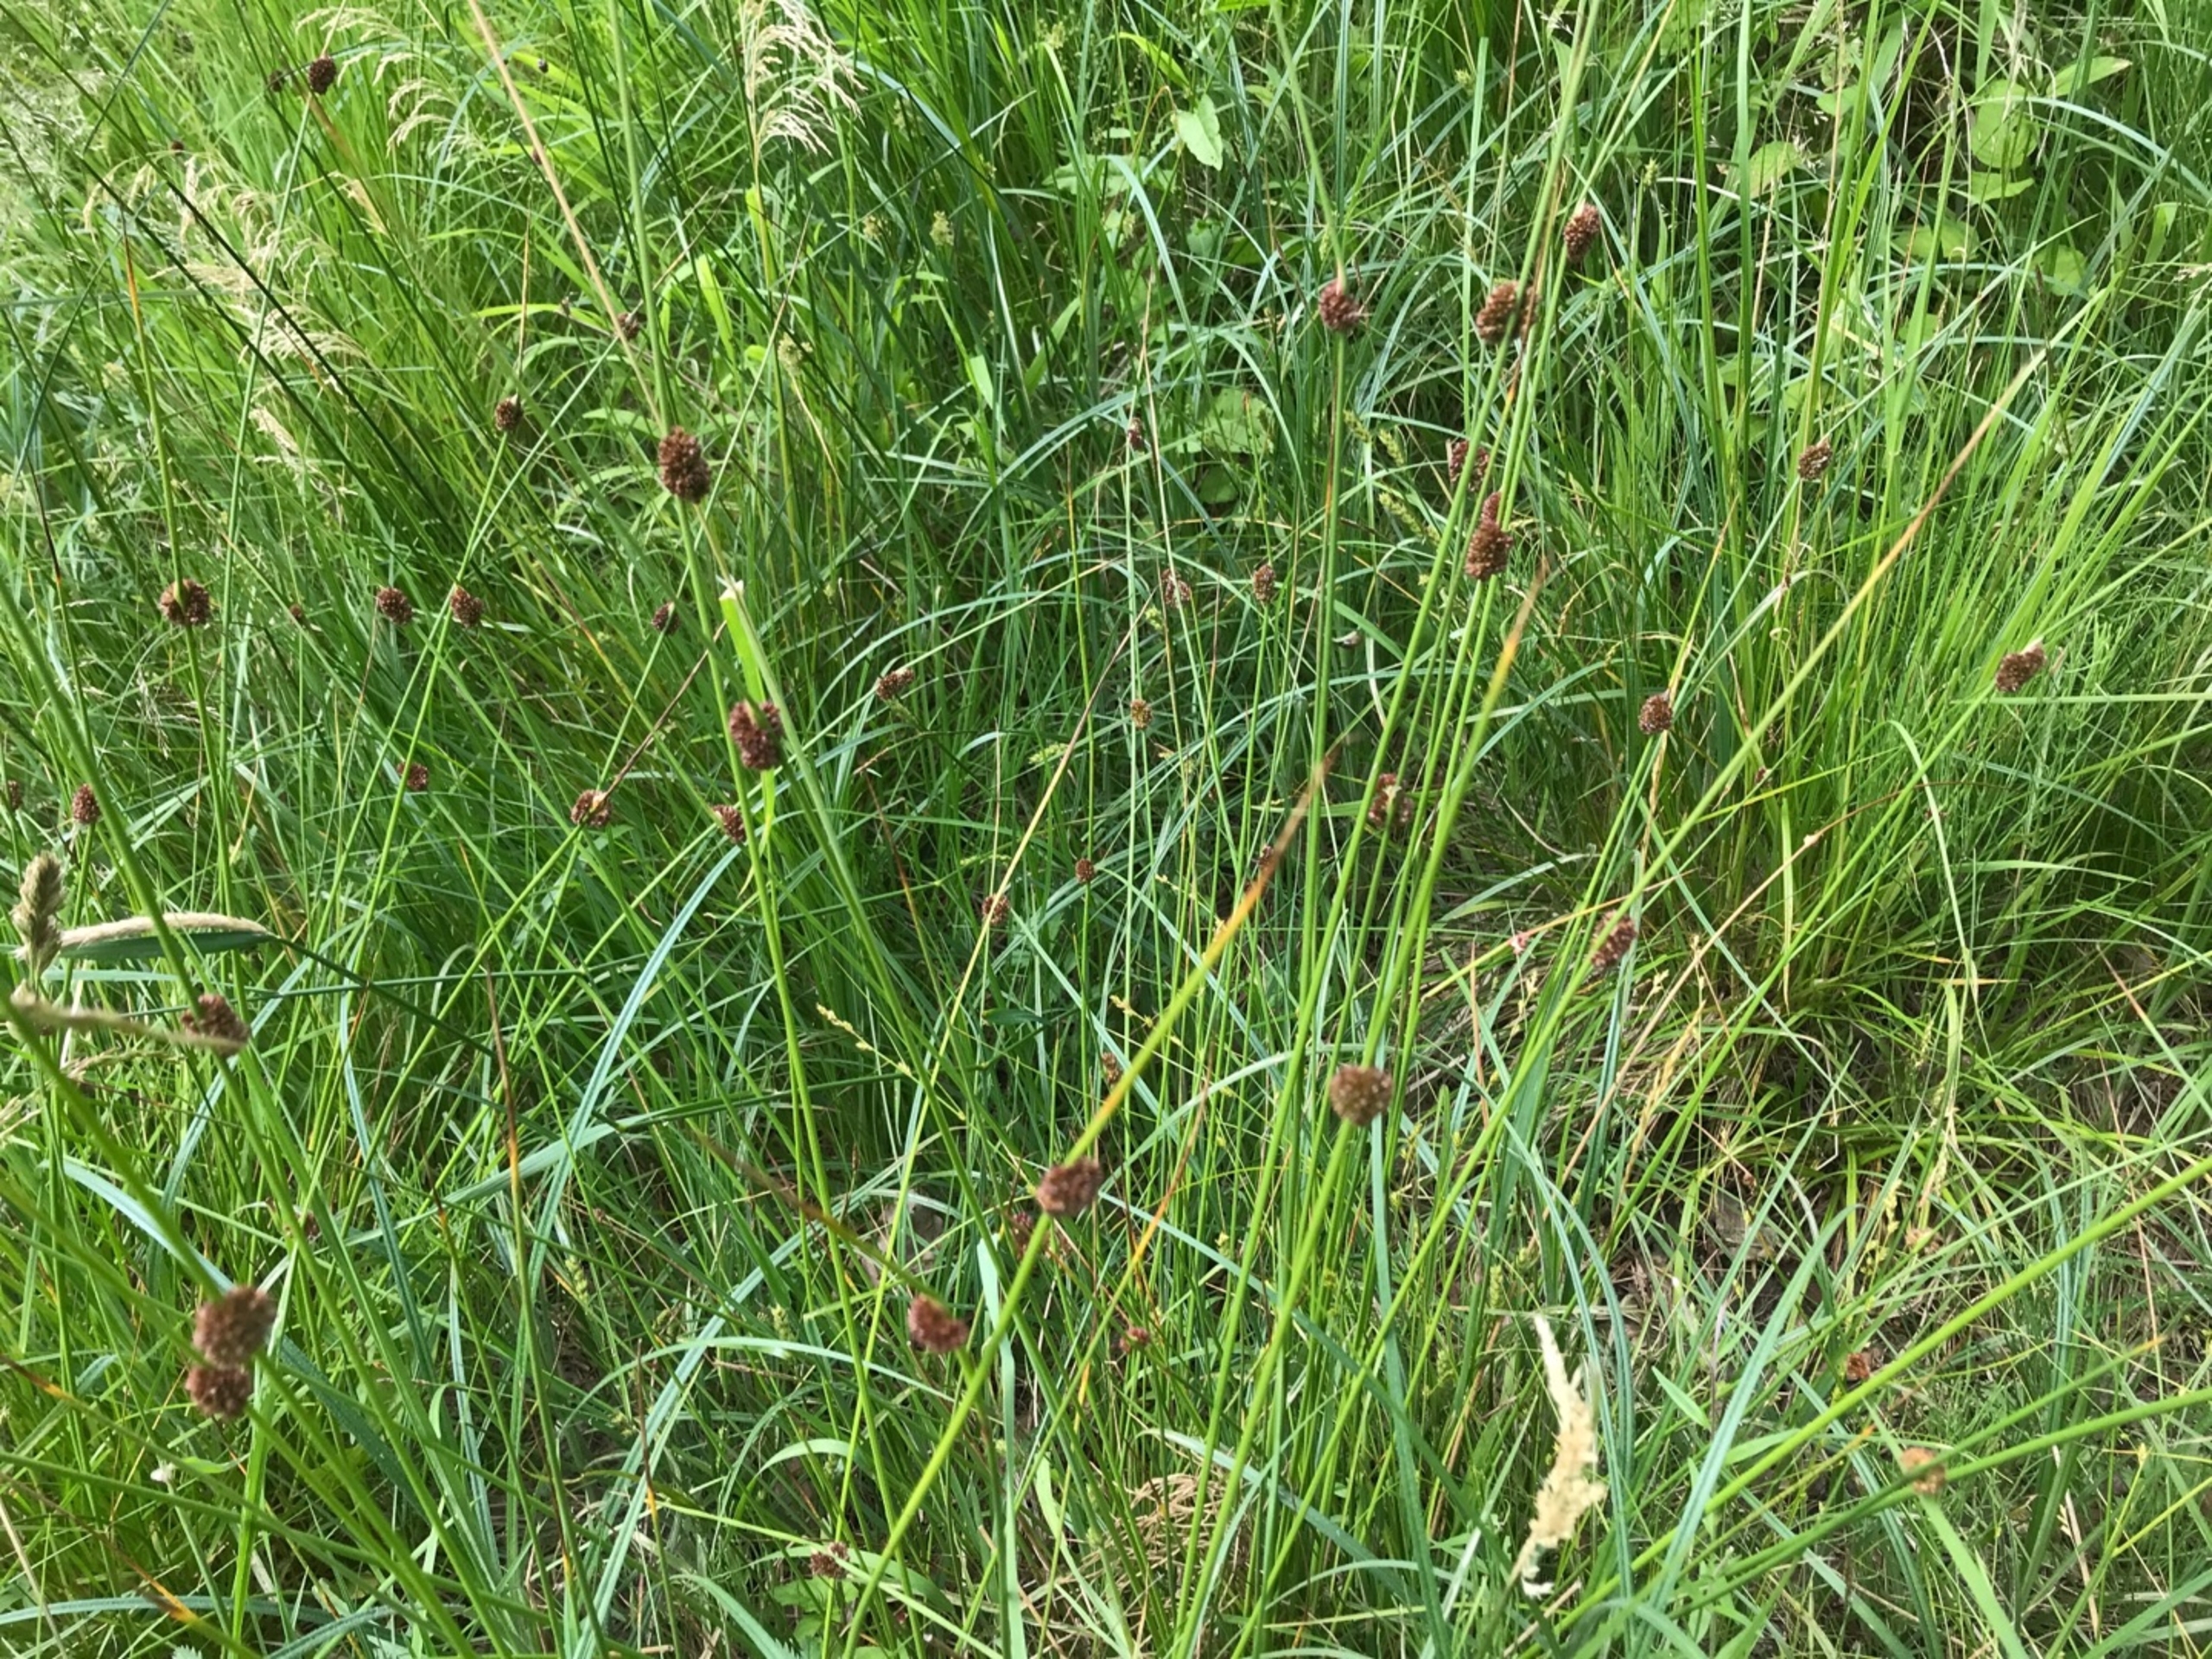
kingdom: Plantae
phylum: Tracheophyta
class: Liliopsida
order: Poales
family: Juncaceae
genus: Juncus
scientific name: Juncus conglomeratus
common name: Knop-siv
